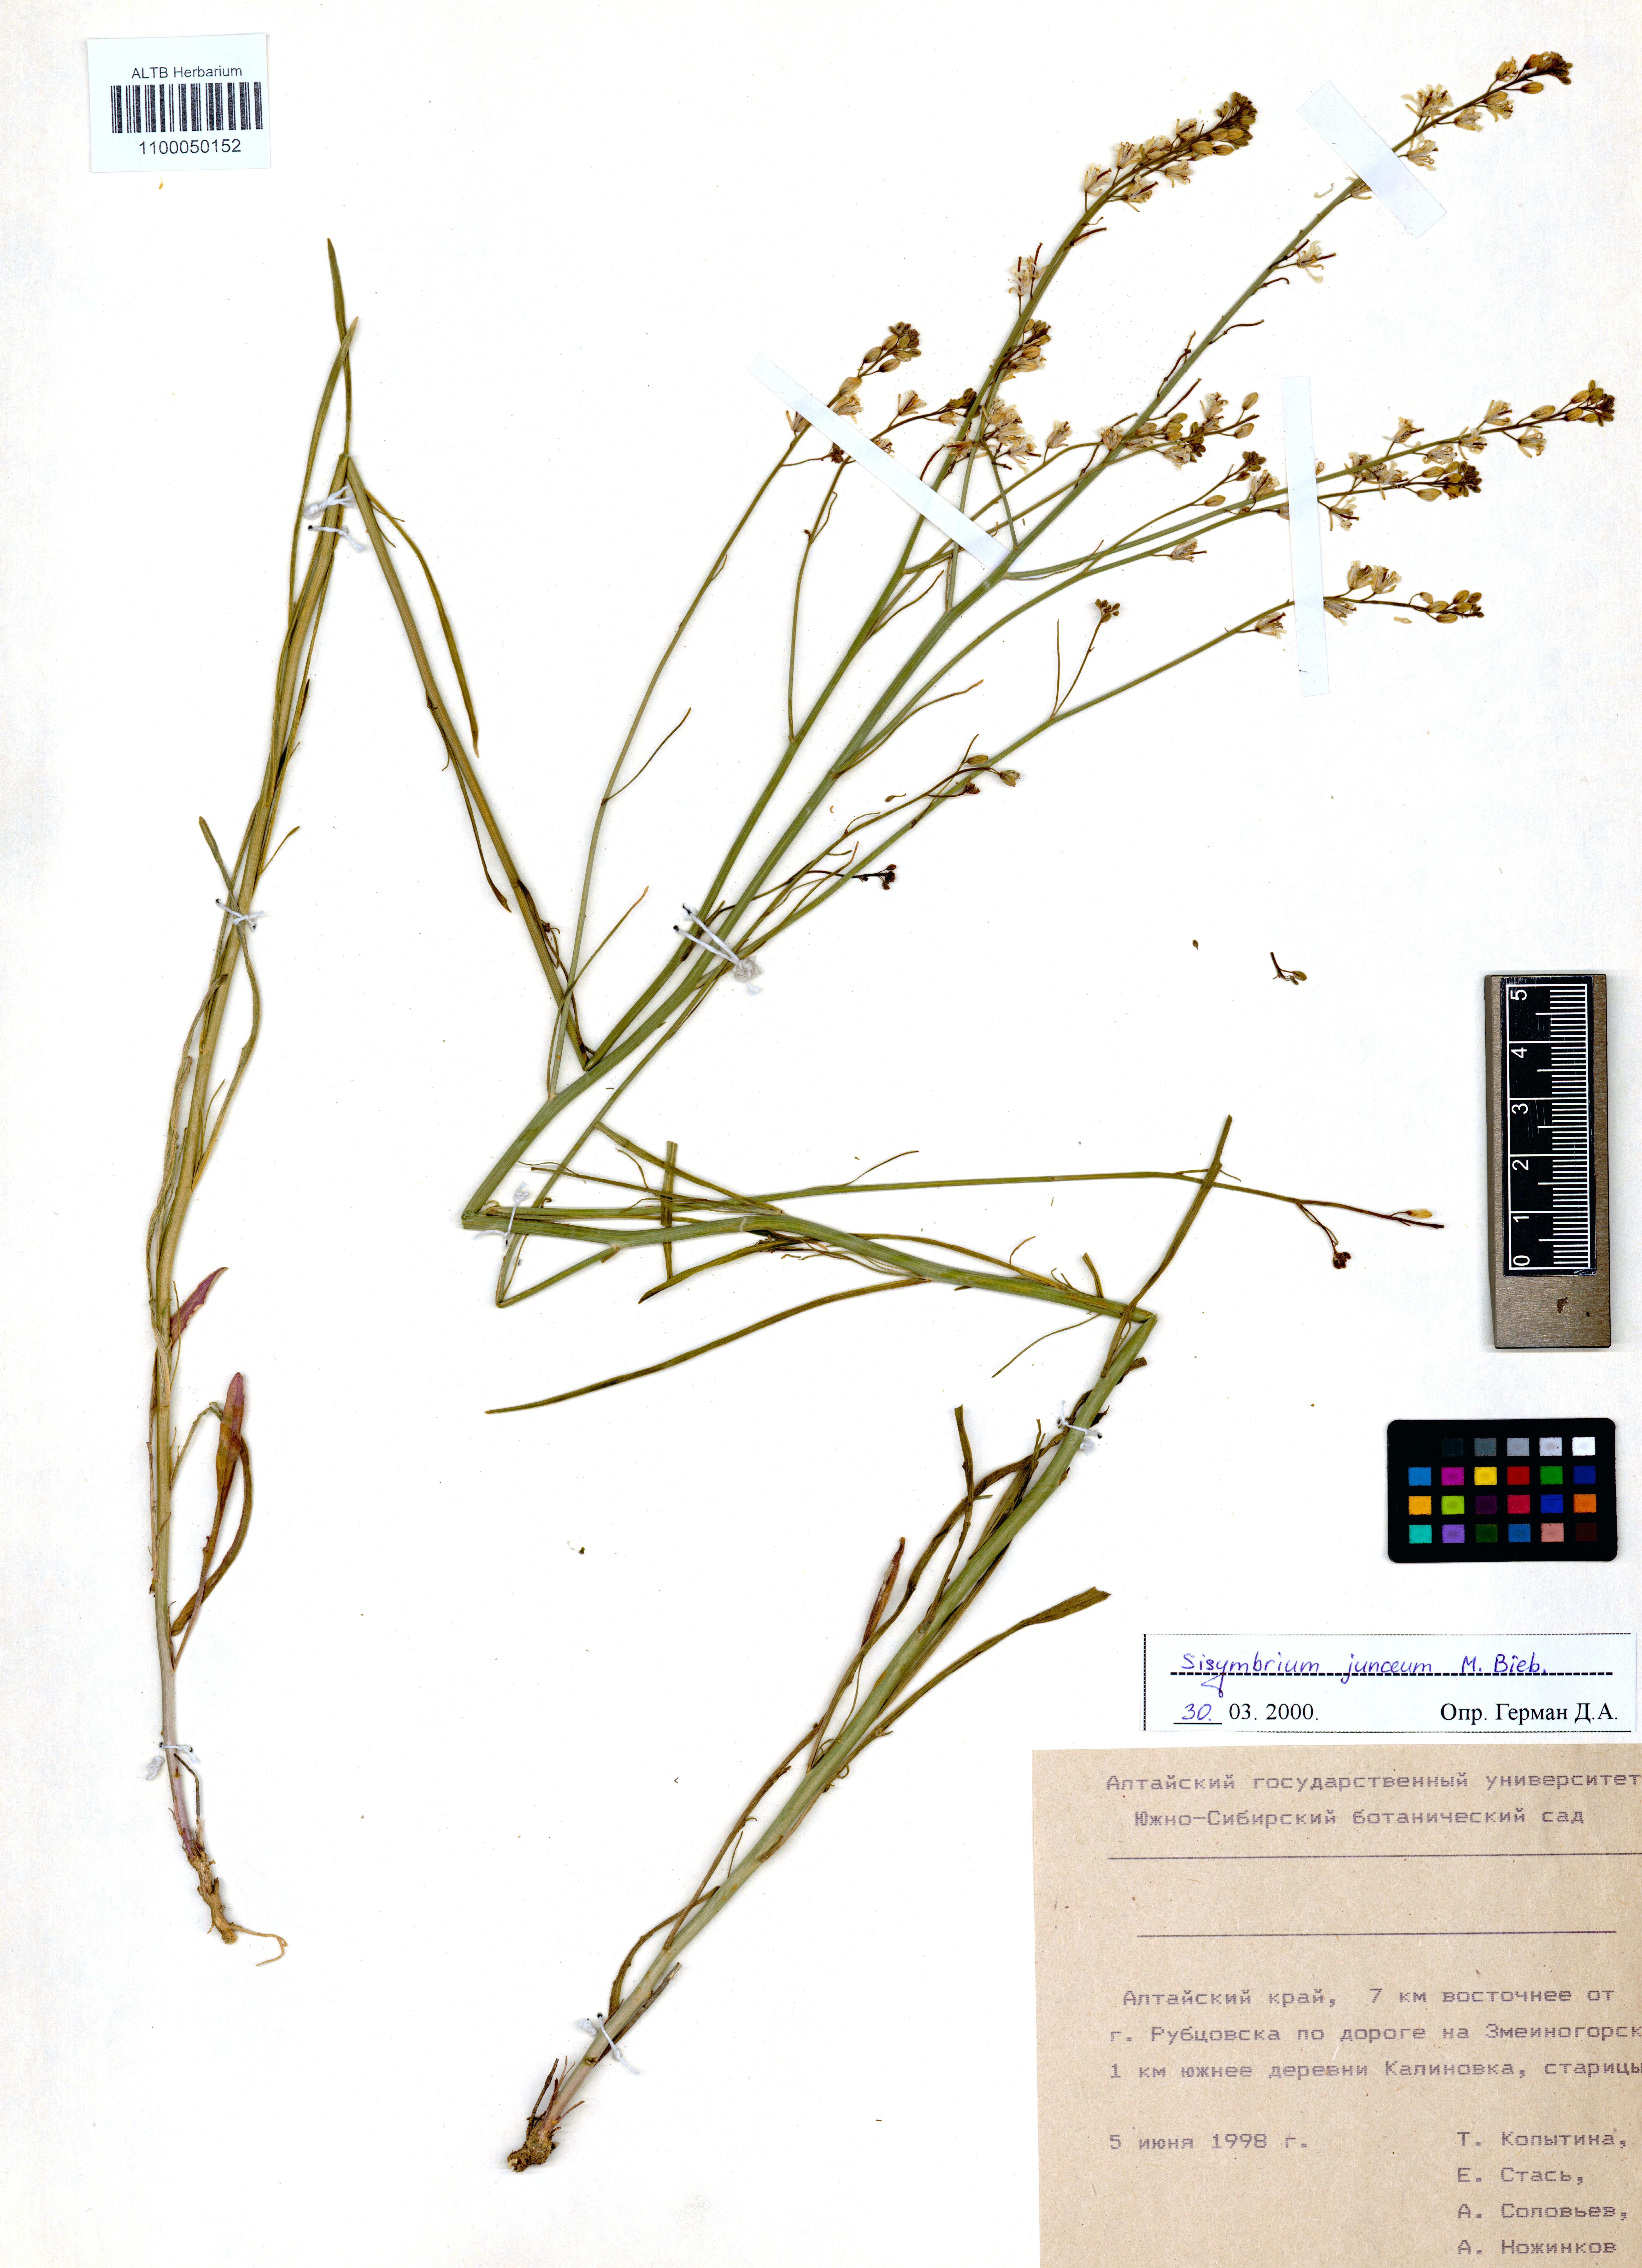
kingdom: Plantae
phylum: Tracheophyta
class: Magnoliopsida
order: Brassicales
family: Brassicaceae
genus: Sisymbrium
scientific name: Sisymbrium polymorphum
